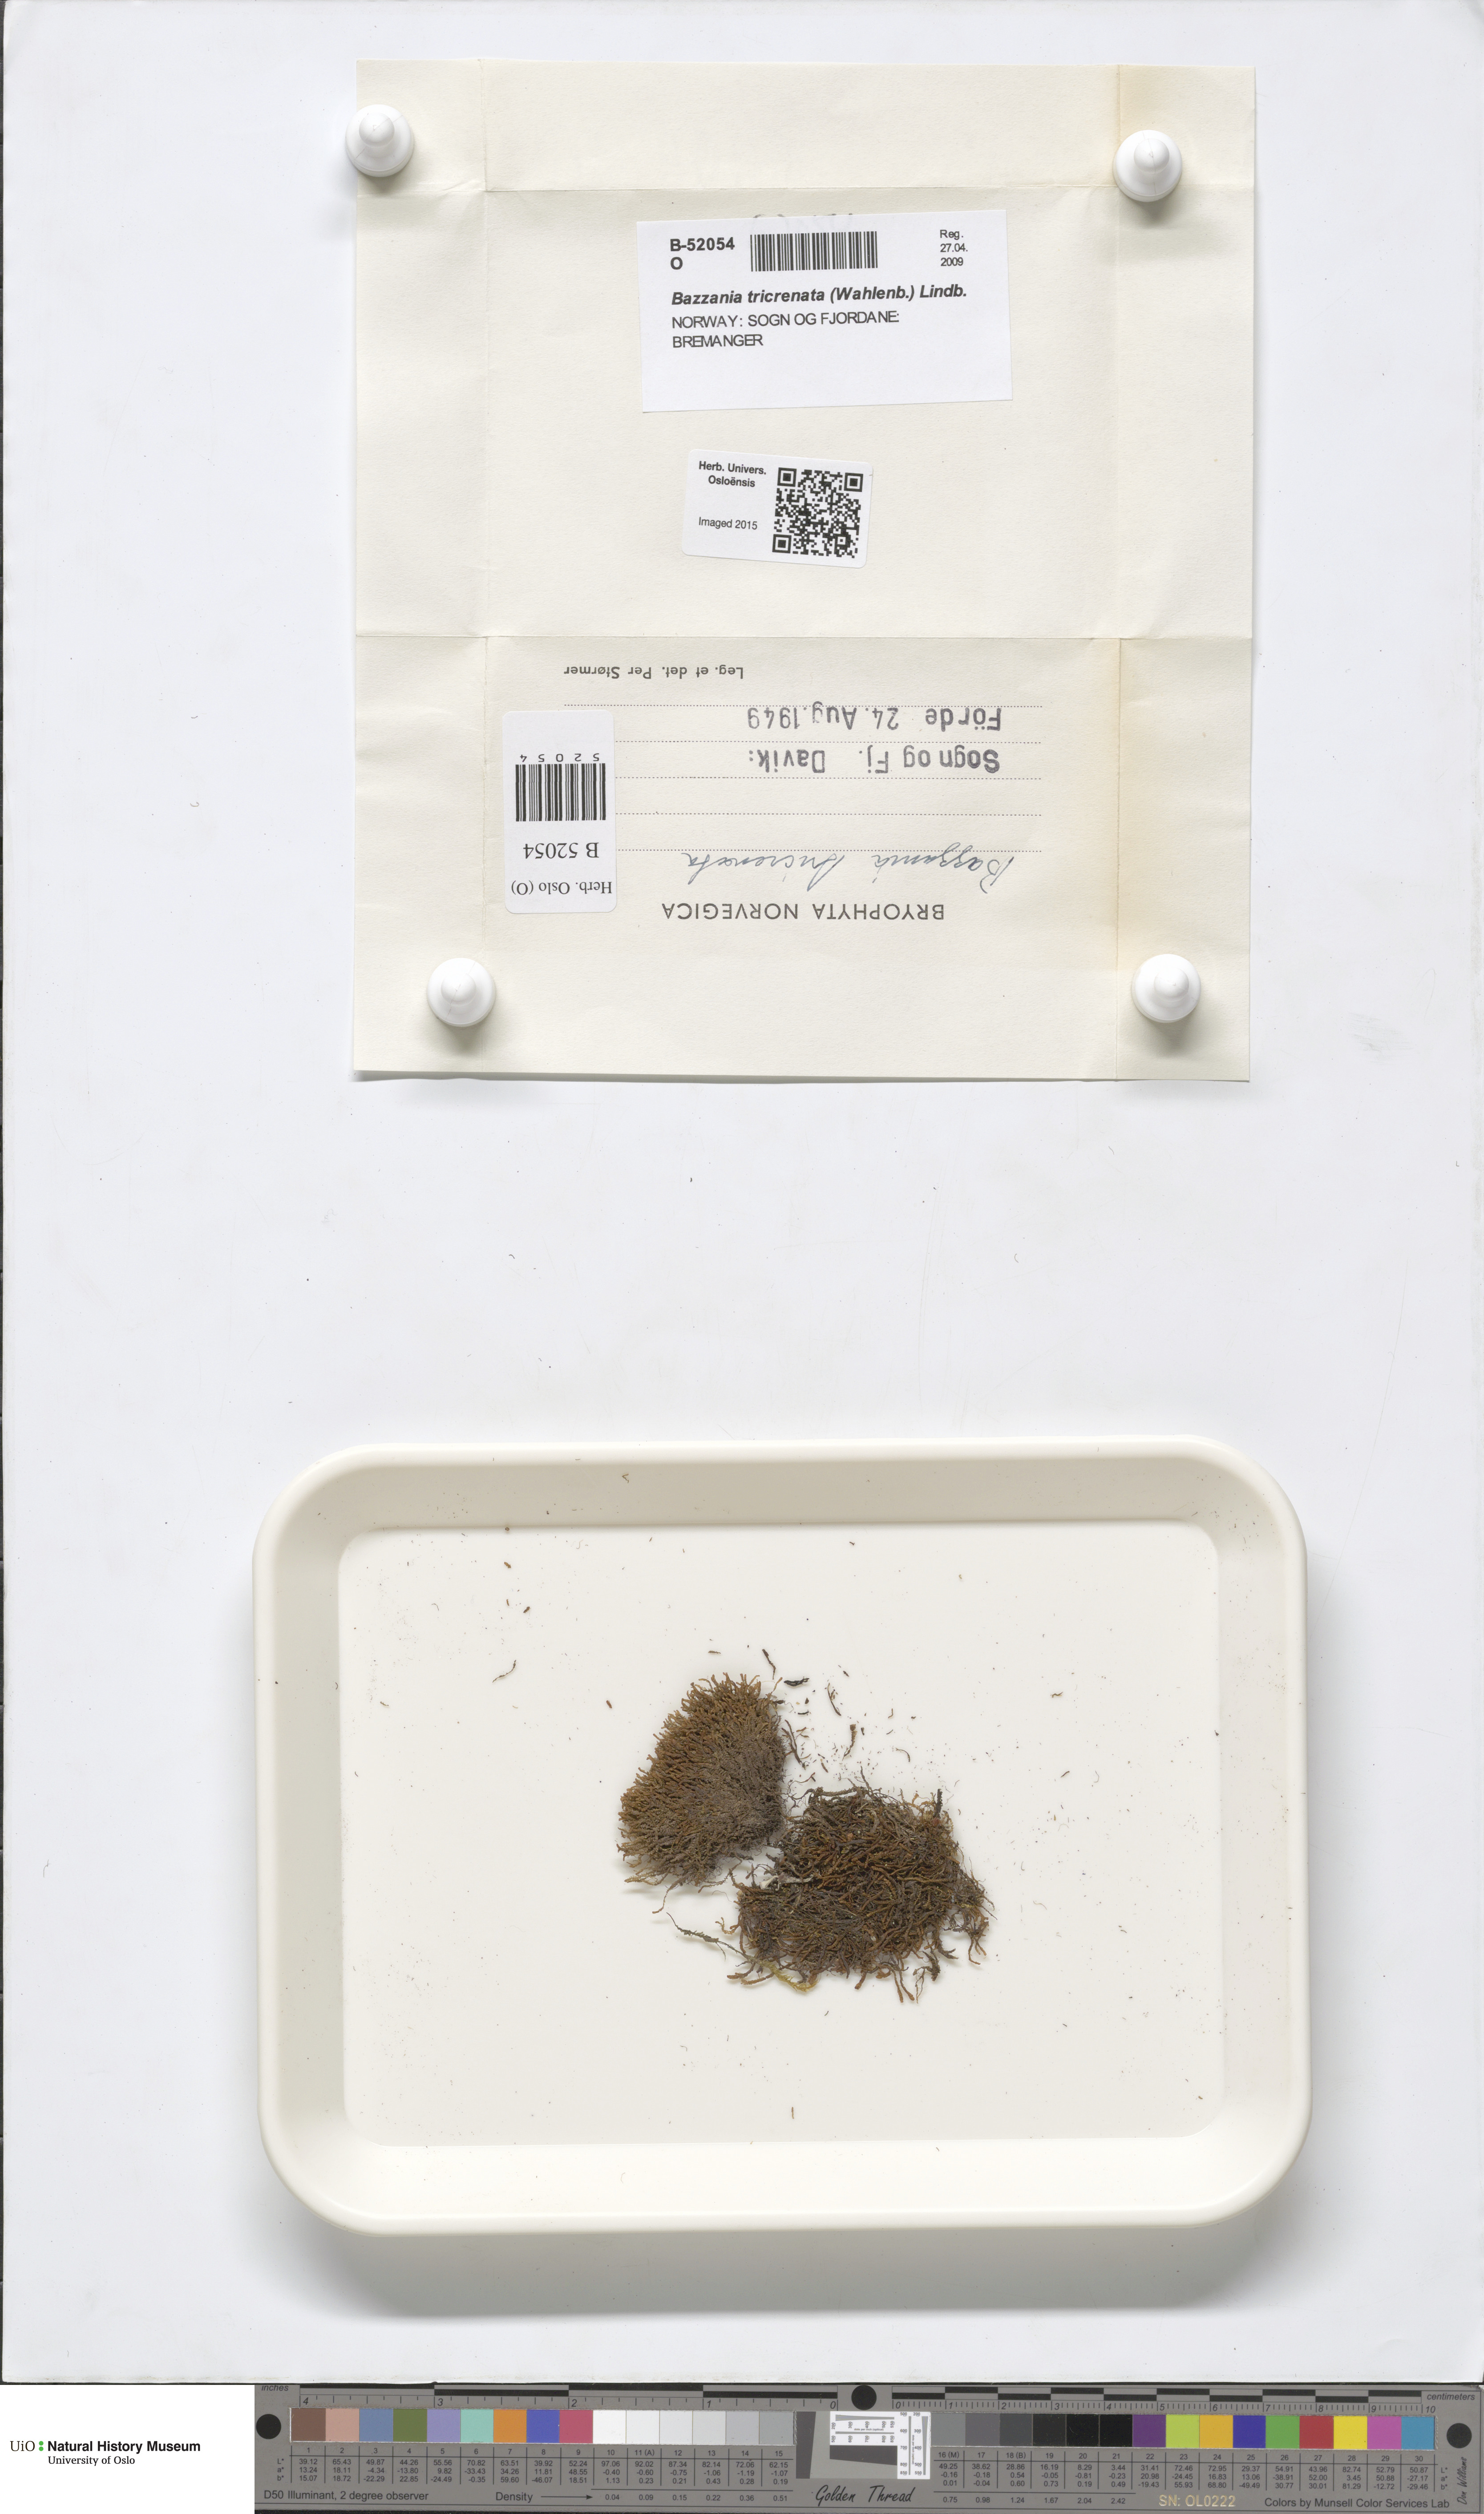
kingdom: Plantae
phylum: Marchantiophyta
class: Jungermanniopsida
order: Jungermanniales
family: Lepidoziaceae
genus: Bazzania
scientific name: Bazzania tricrenata
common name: Lesser whipwort
